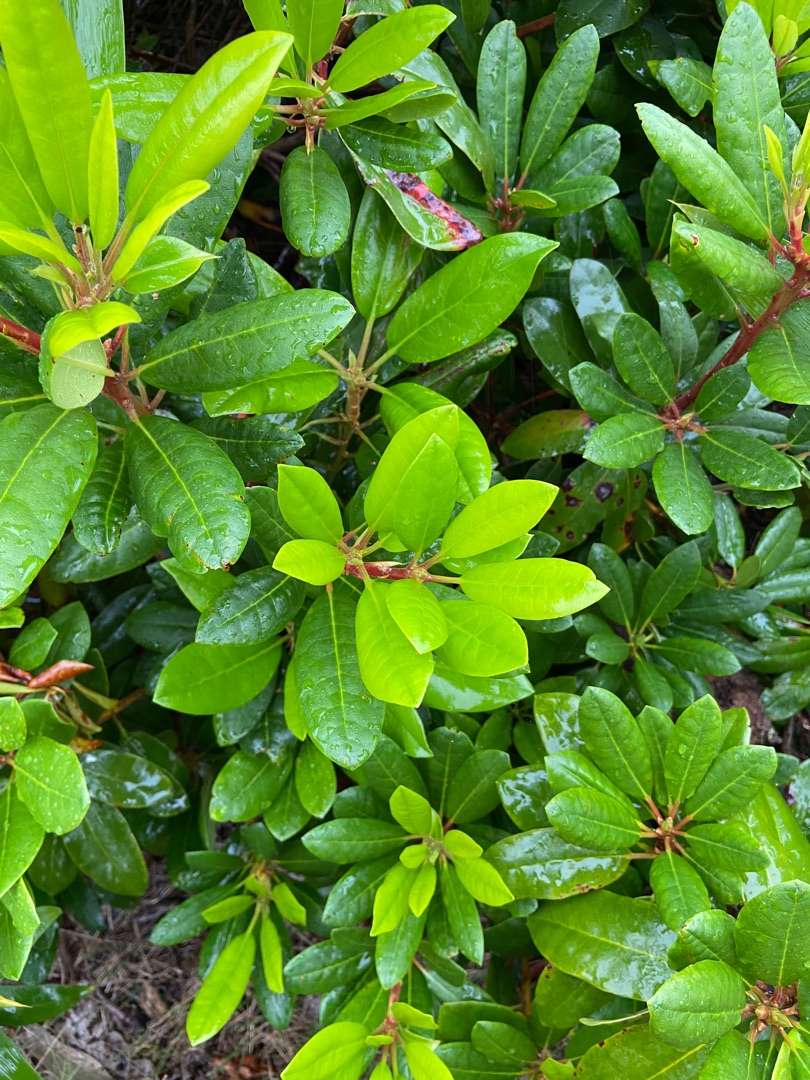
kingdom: Plantae
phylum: Tracheophyta
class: Magnoliopsida
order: Ericales
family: Ericaceae
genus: Rhododendron
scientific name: Rhododendron
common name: Rhododendronslægten
